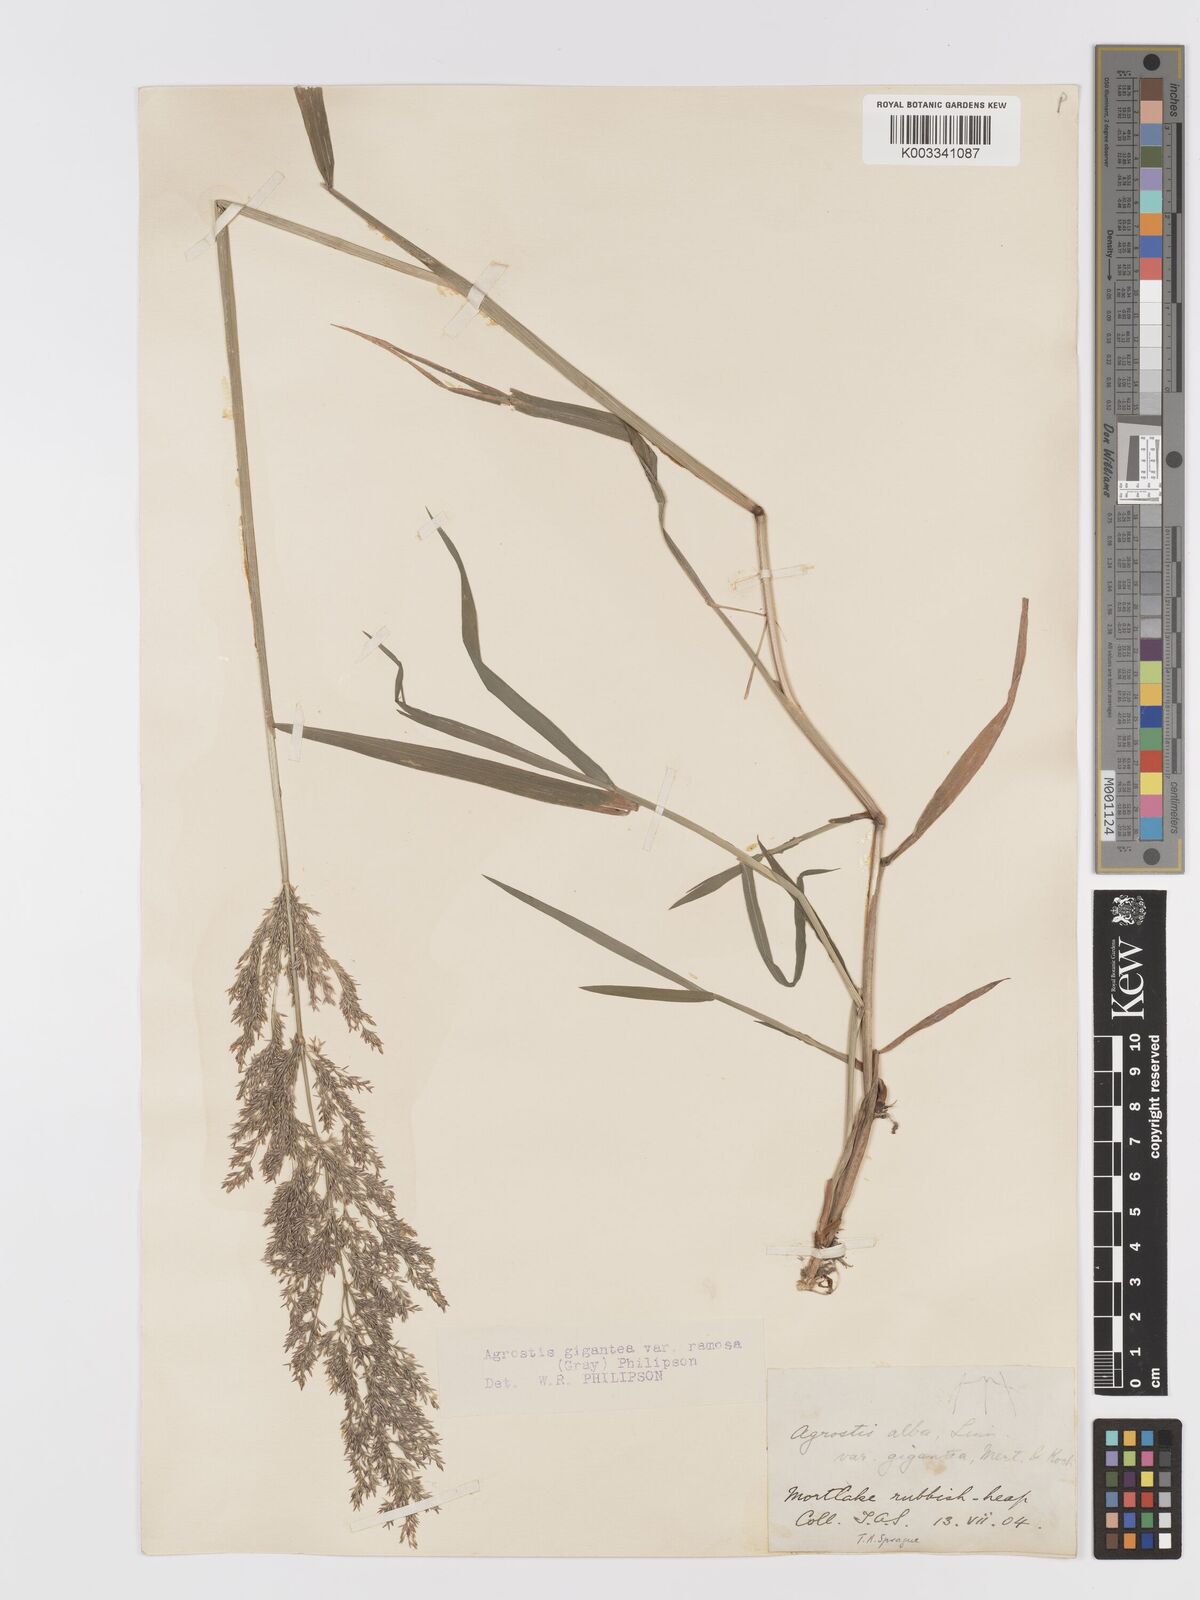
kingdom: Plantae
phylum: Tracheophyta
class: Liliopsida
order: Poales
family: Poaceae
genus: Agrostis
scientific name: Agrostis gigantea
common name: Black bent
